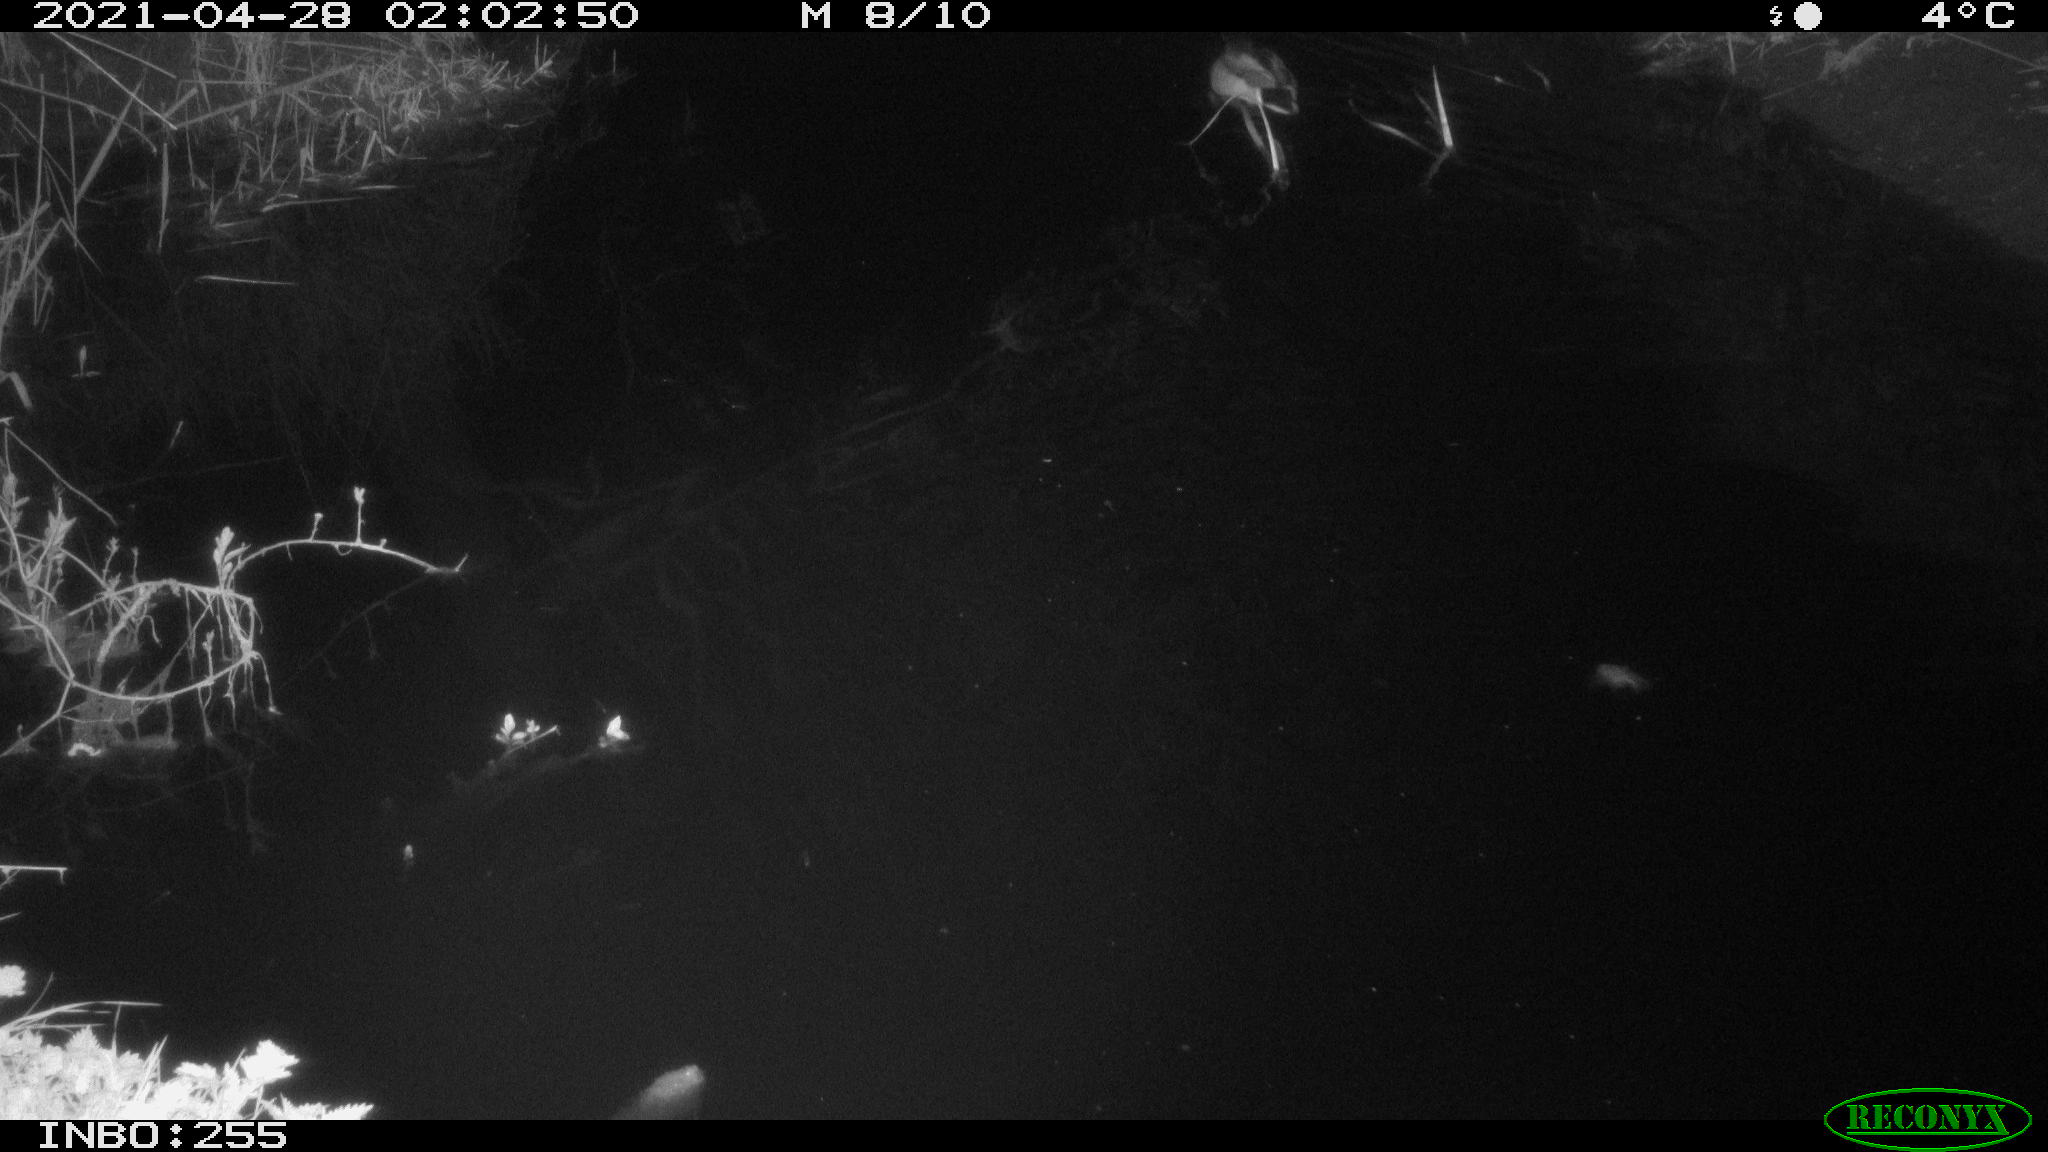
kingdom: Animalia
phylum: Chordata
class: Aves
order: Anseriformes
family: Anatidae
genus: Anas
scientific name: Anas platyrhynchos
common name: Mallard
